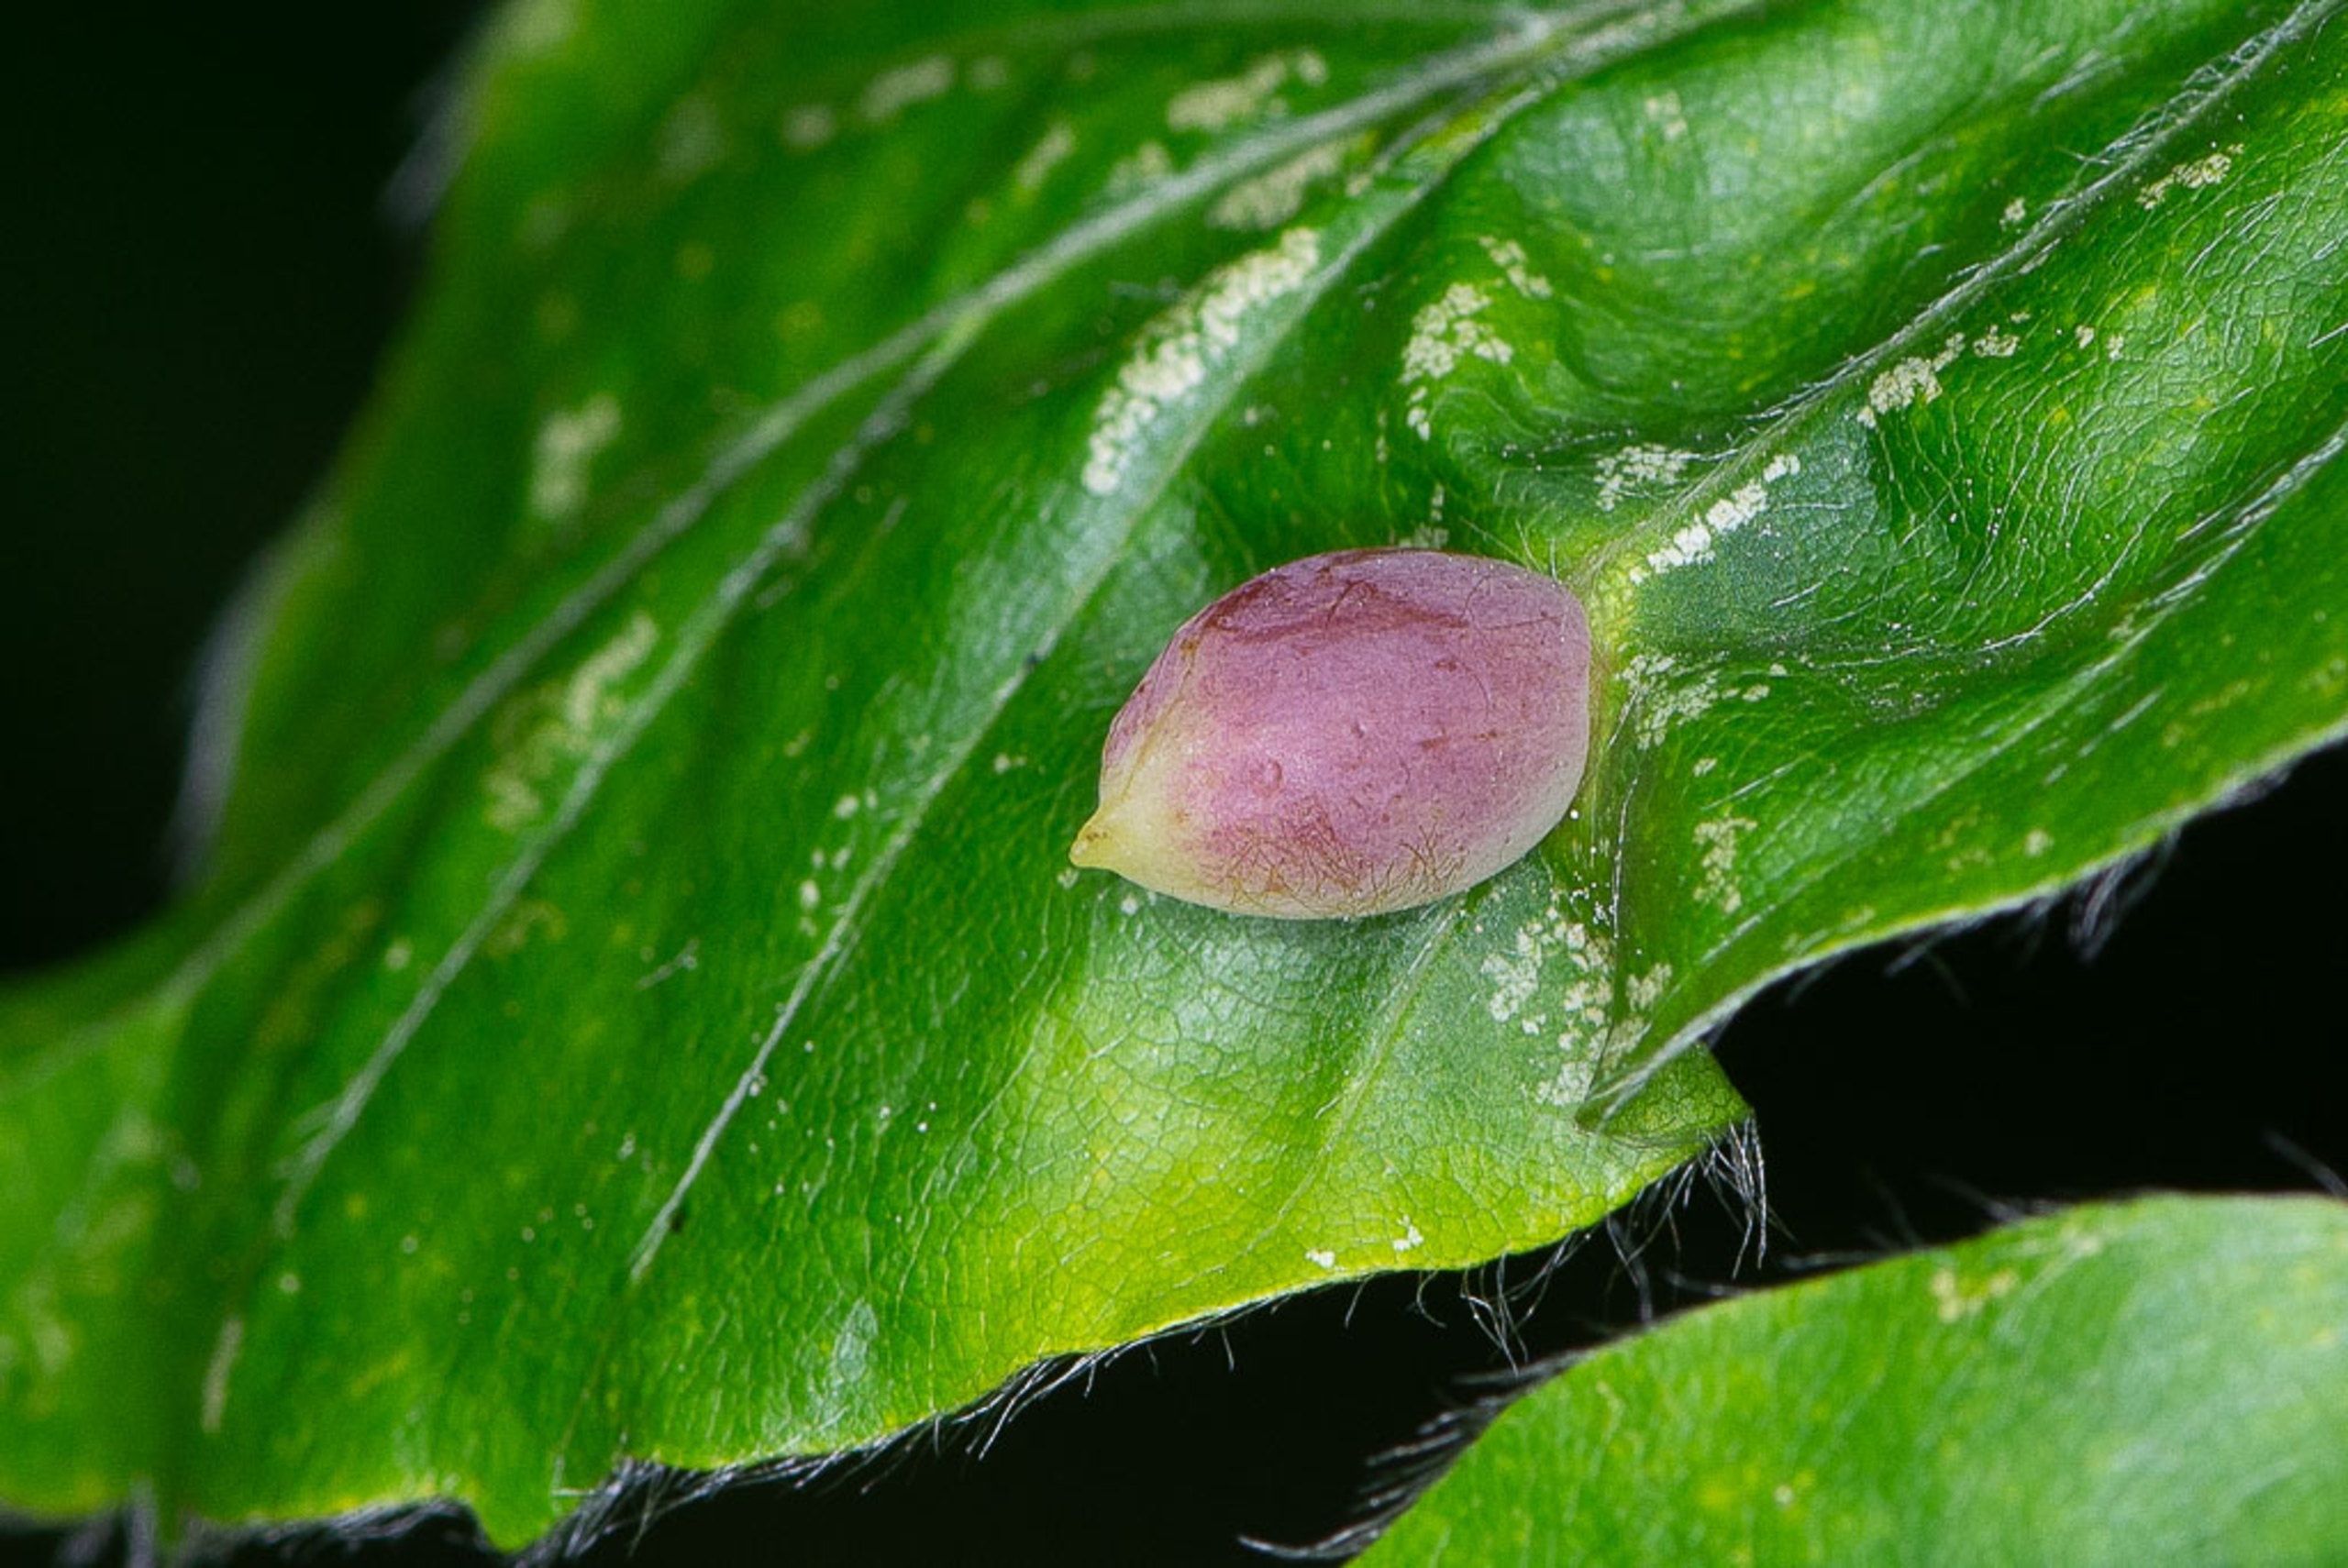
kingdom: Animalia
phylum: Arthropoda
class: Insecta
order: Diptera
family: Cecidomyiidae
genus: Mikiola
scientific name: Mikiola fagi
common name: Bøgegalmyg
